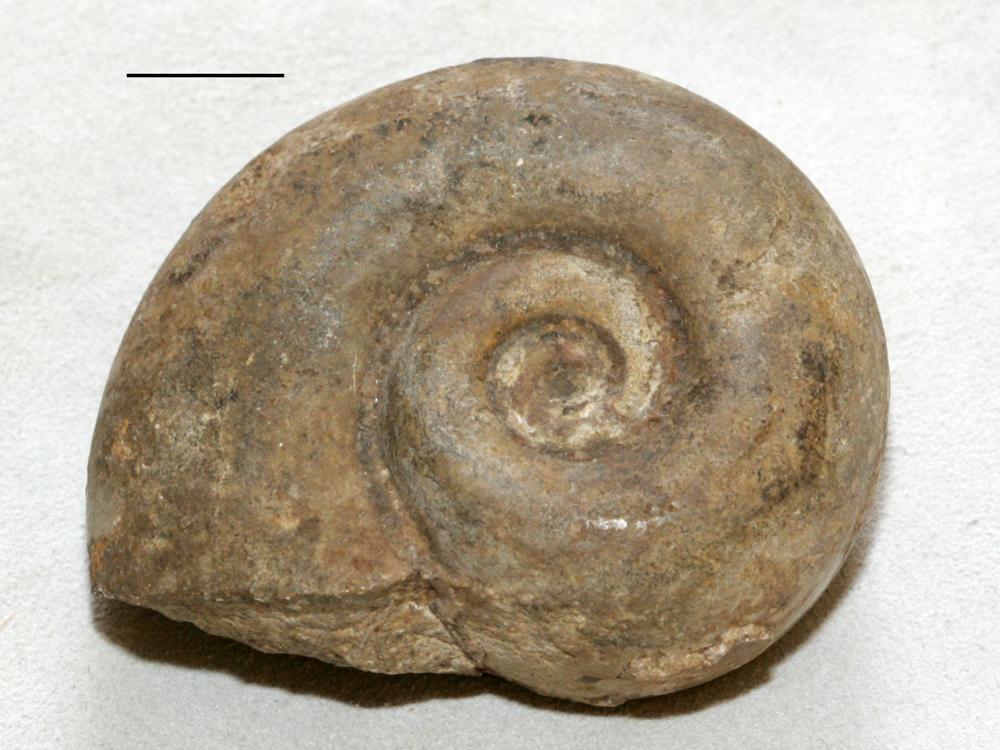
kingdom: Animalia
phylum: Mollusca
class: Gastropoda
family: Lesueurillidae
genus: Lesueurilla
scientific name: Lesueurilla Maclurea infundibulum
